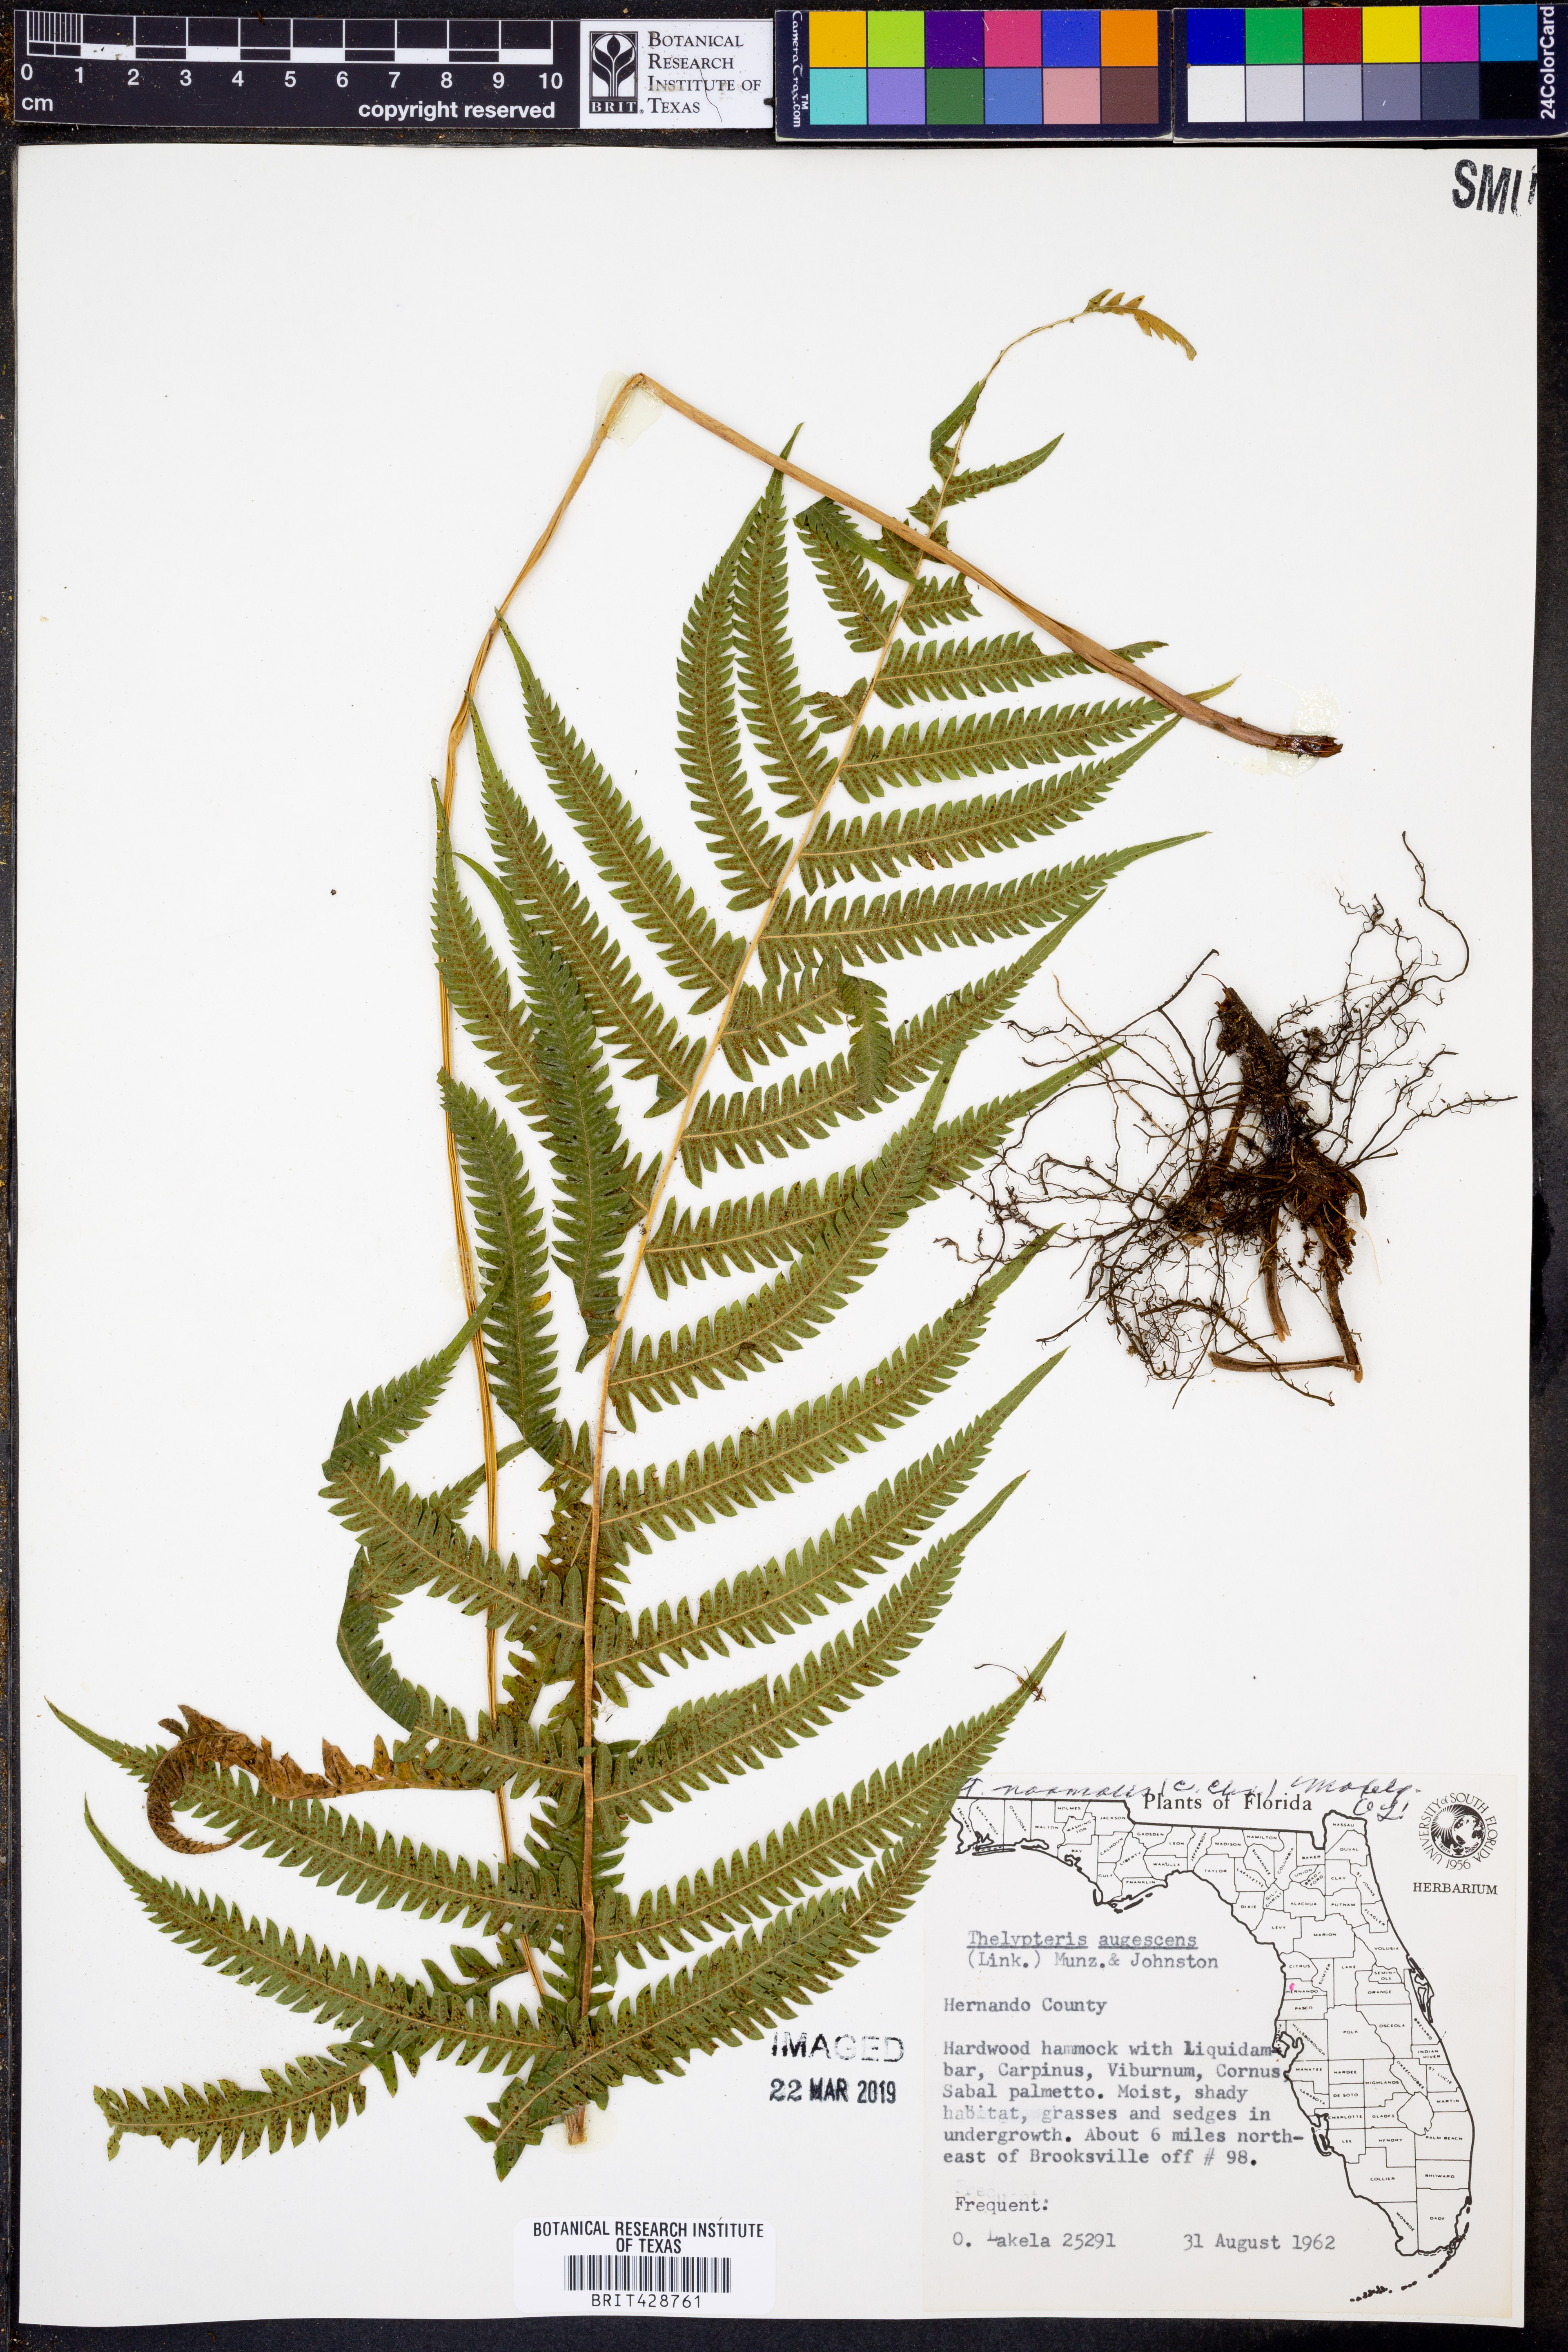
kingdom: Plantae
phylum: Tracheophyta
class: Polypodiopsida
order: Polypodiales
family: Thelypteridaceae
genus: Pelazoneuron
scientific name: Pelazoneuron kunthii
